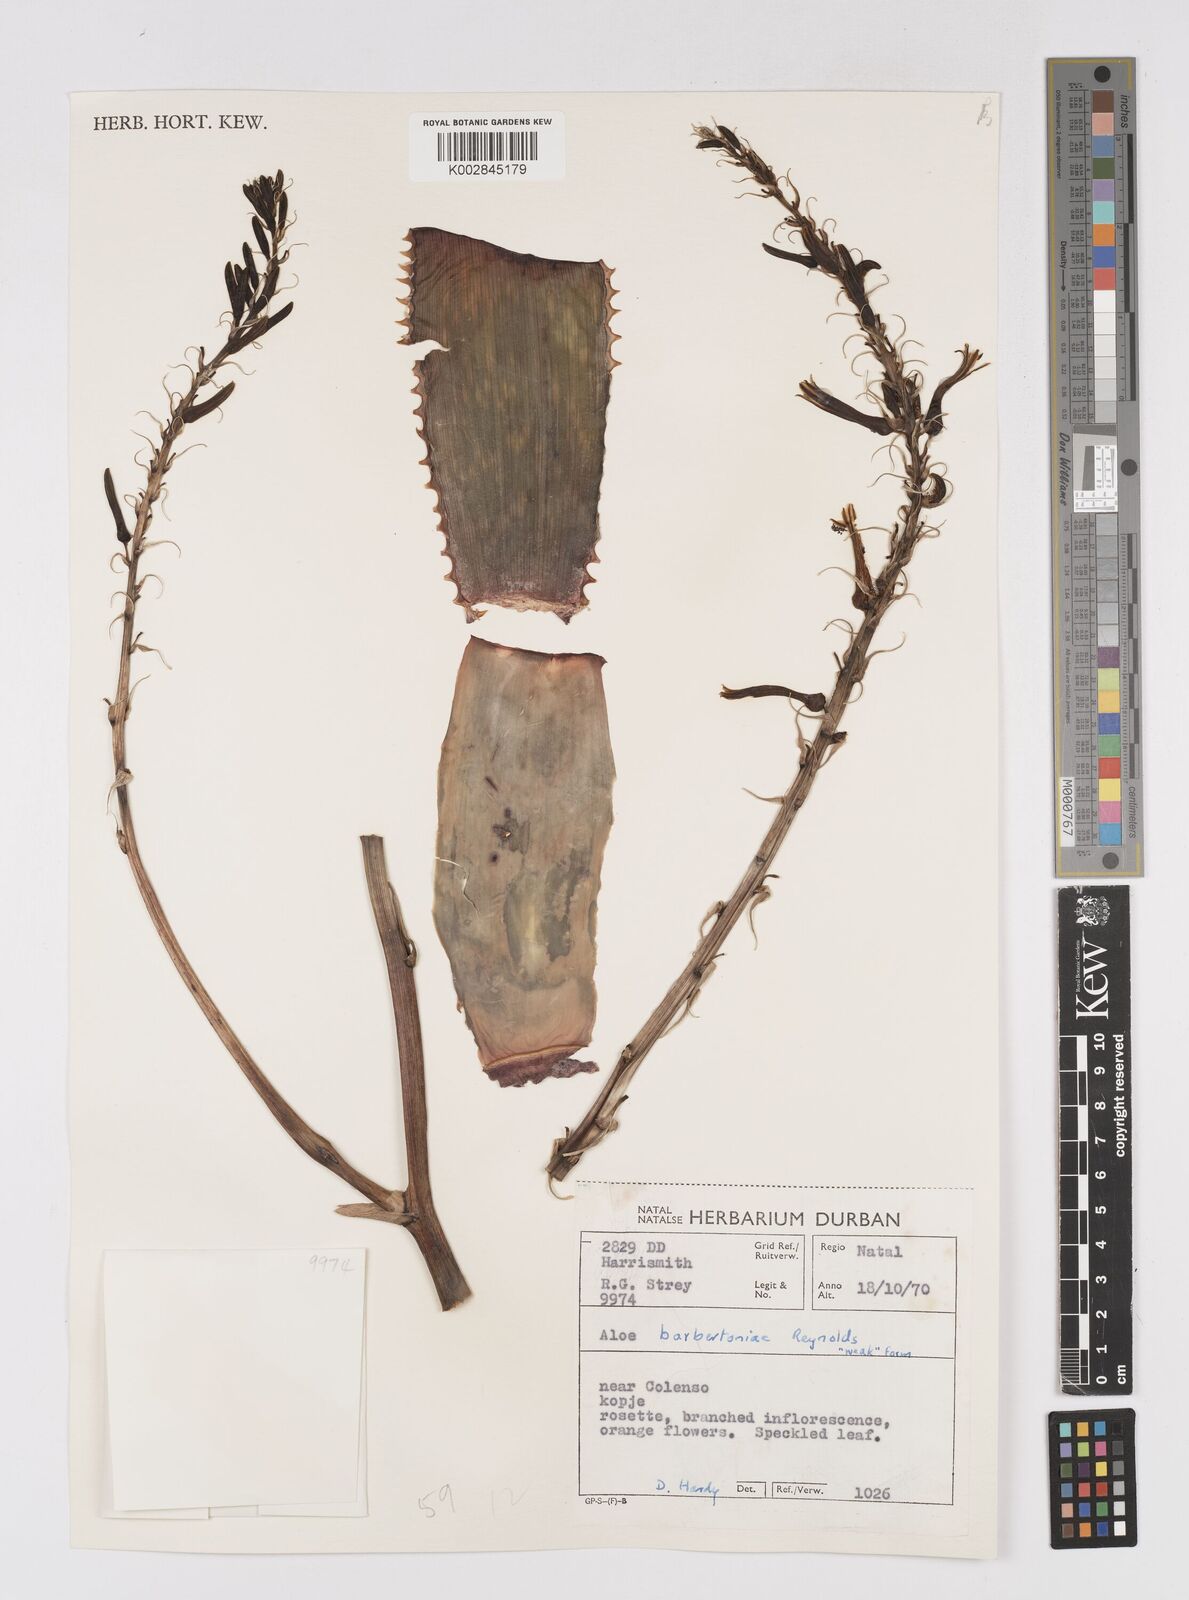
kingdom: Plantae
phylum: Tracheophyta
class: Liliopsida
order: Asparagales
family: Asphodelaceae
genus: Aloe
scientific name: Aloe davyana
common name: Spotted aloe
